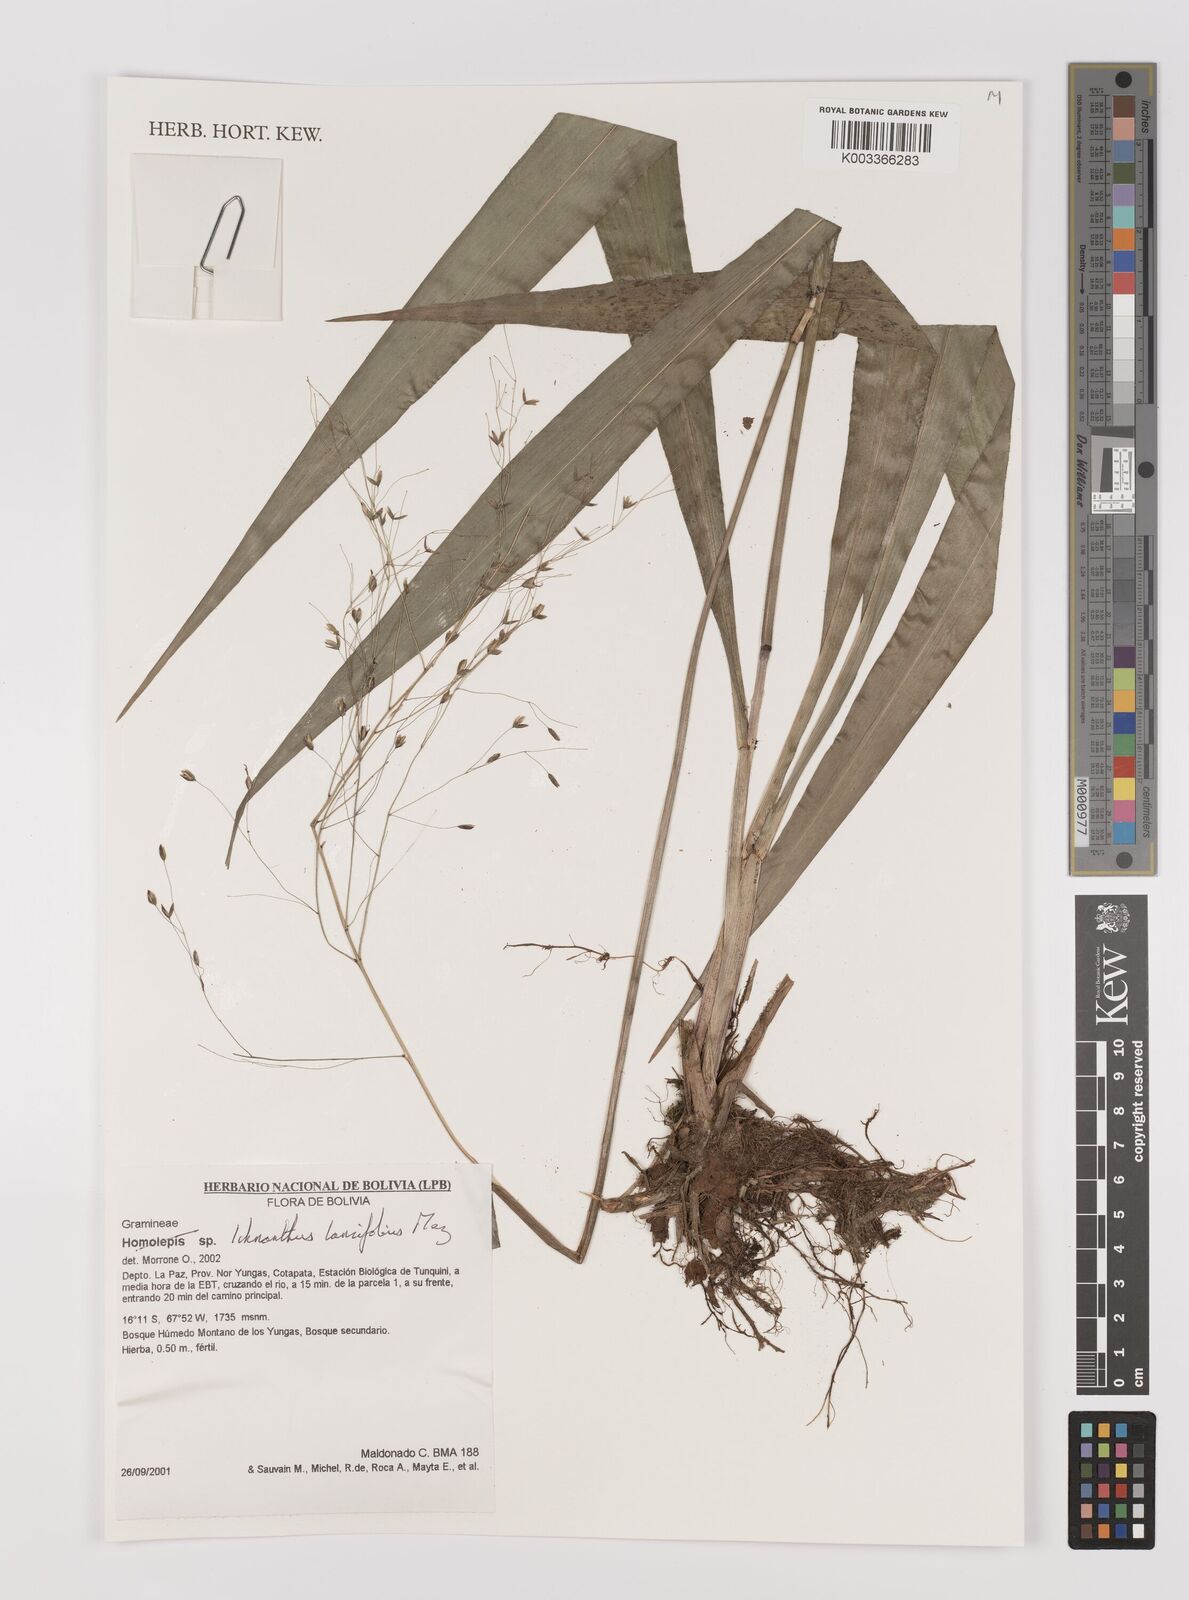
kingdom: Plantae
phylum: Tracheophyta
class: Liliopsida
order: Poales
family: Poaceae
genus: Ichnanthus
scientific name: Ichnanthus lancifolius
